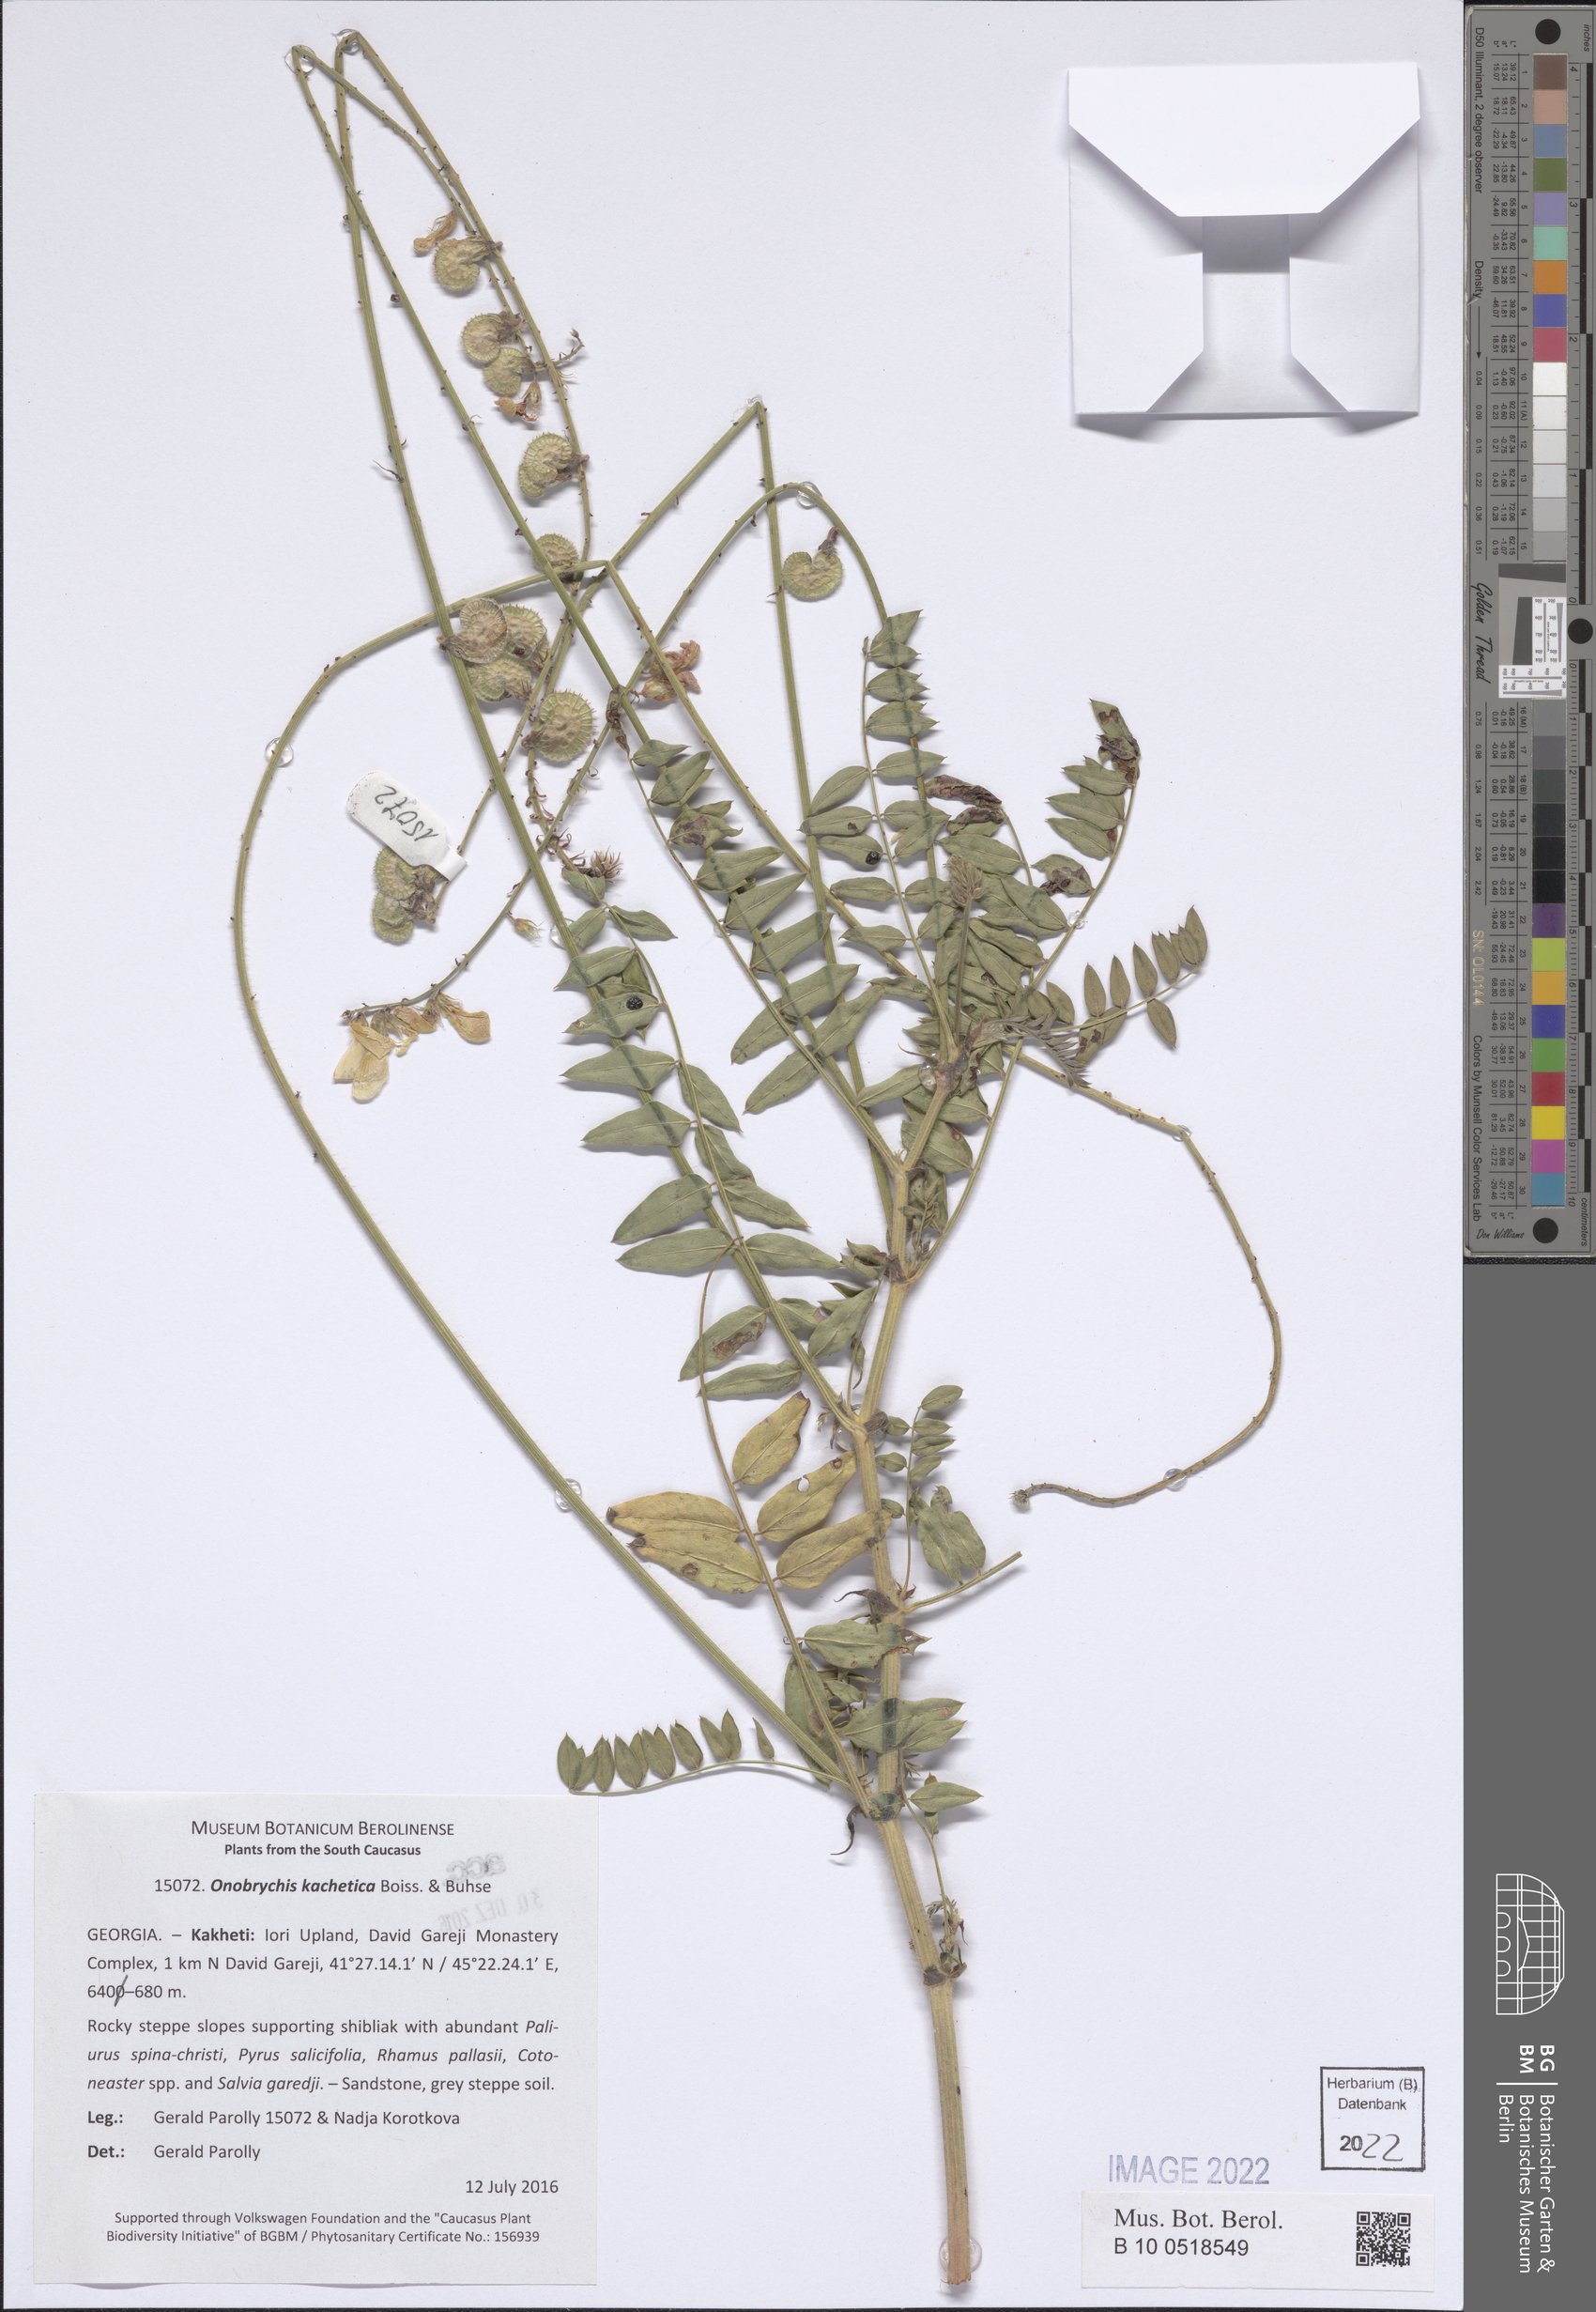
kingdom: Plantae
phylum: Tracheophyta
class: Magnoliopsida
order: Fabales
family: Fabaceae
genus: Onobrychis
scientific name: Onobrychis kachetica
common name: Kakhetian sainfoin
